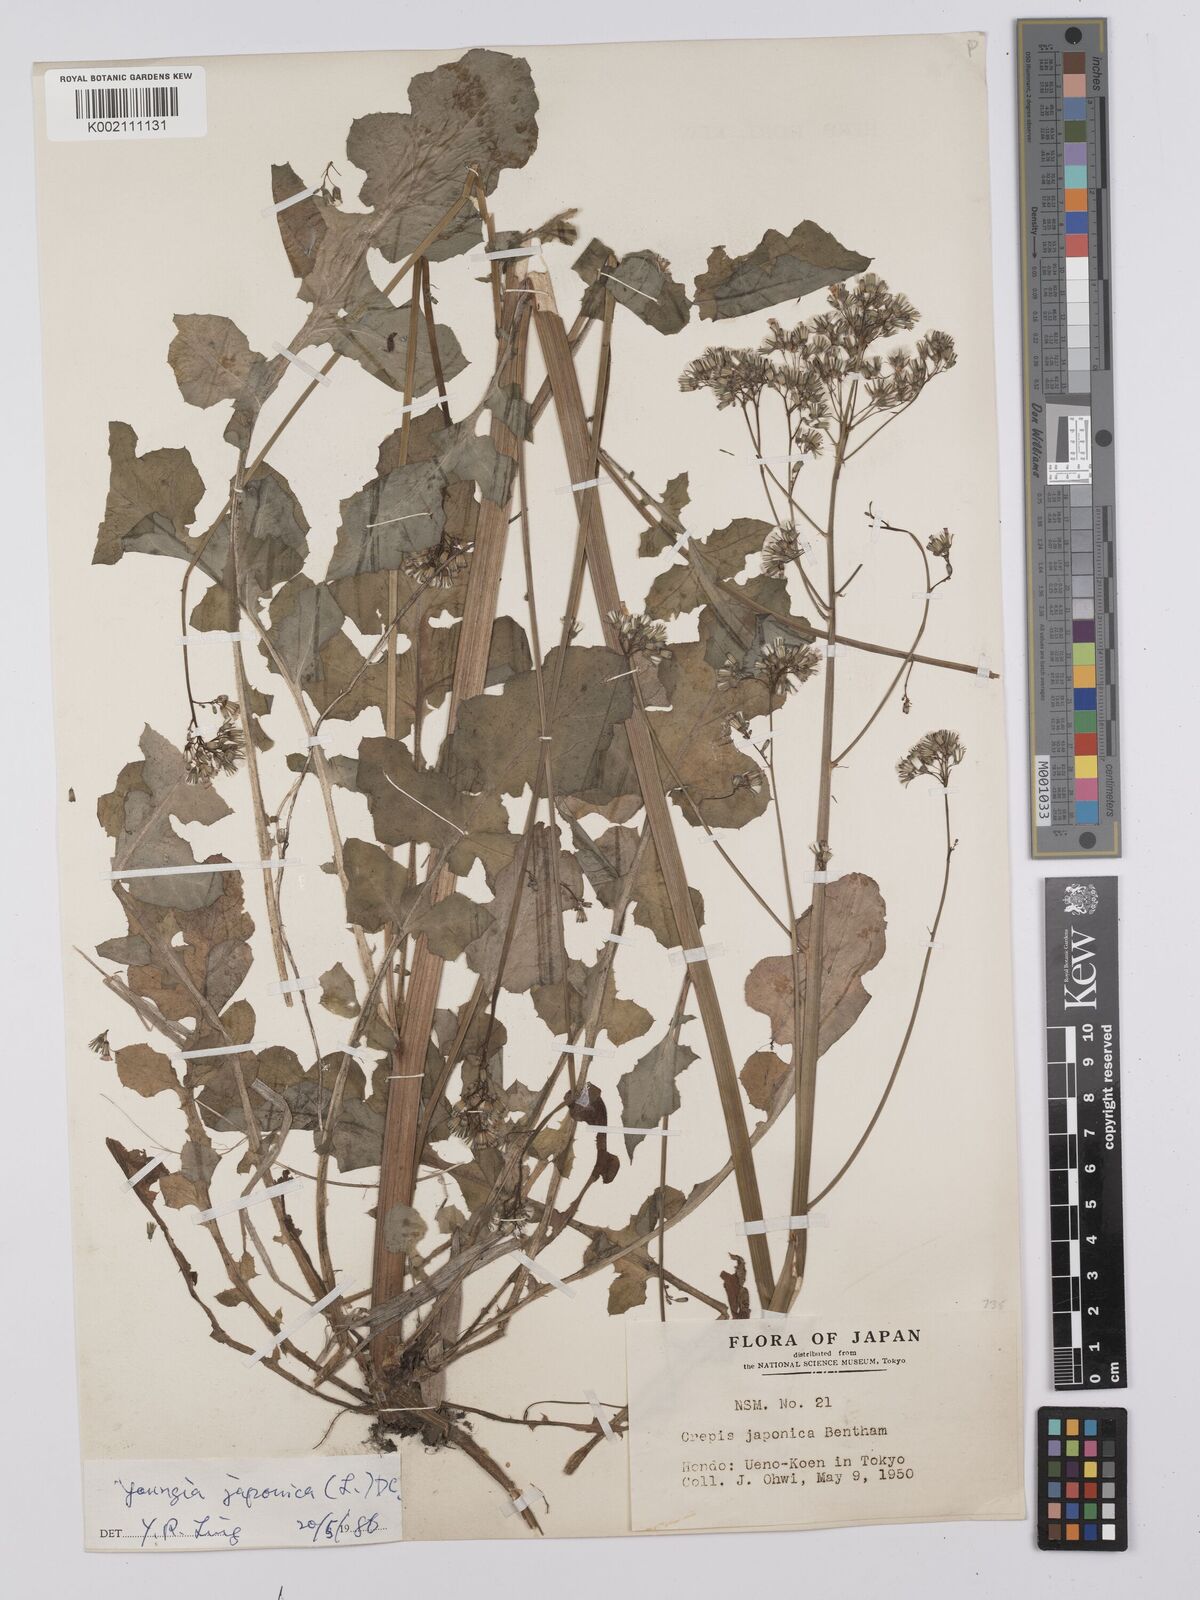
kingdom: Plantae
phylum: Tracheophyta
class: Magnoliopsida
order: Asterales
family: Asteraceae
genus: Youngia
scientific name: Youngia japonica
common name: Oriental false hawksbeard
